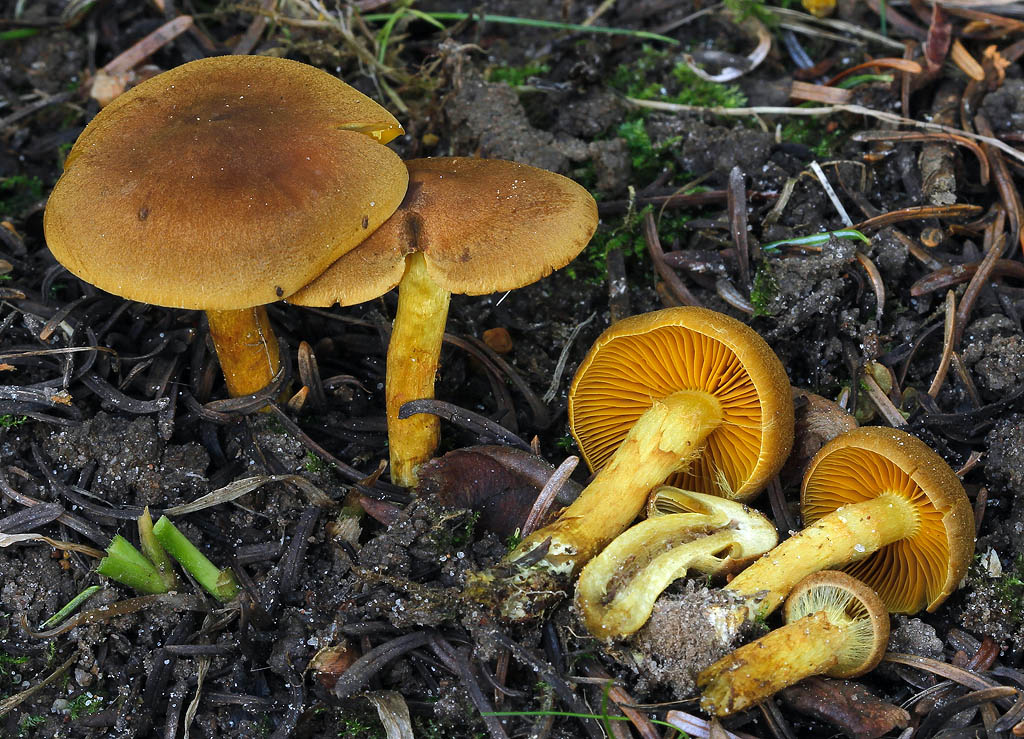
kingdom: Fungi
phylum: Basidiomycota
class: Agaricomycetes
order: Agaricales
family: Cortinariaceae
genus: Cortinarius
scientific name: Cortinarius
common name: gulbladet slørhat
